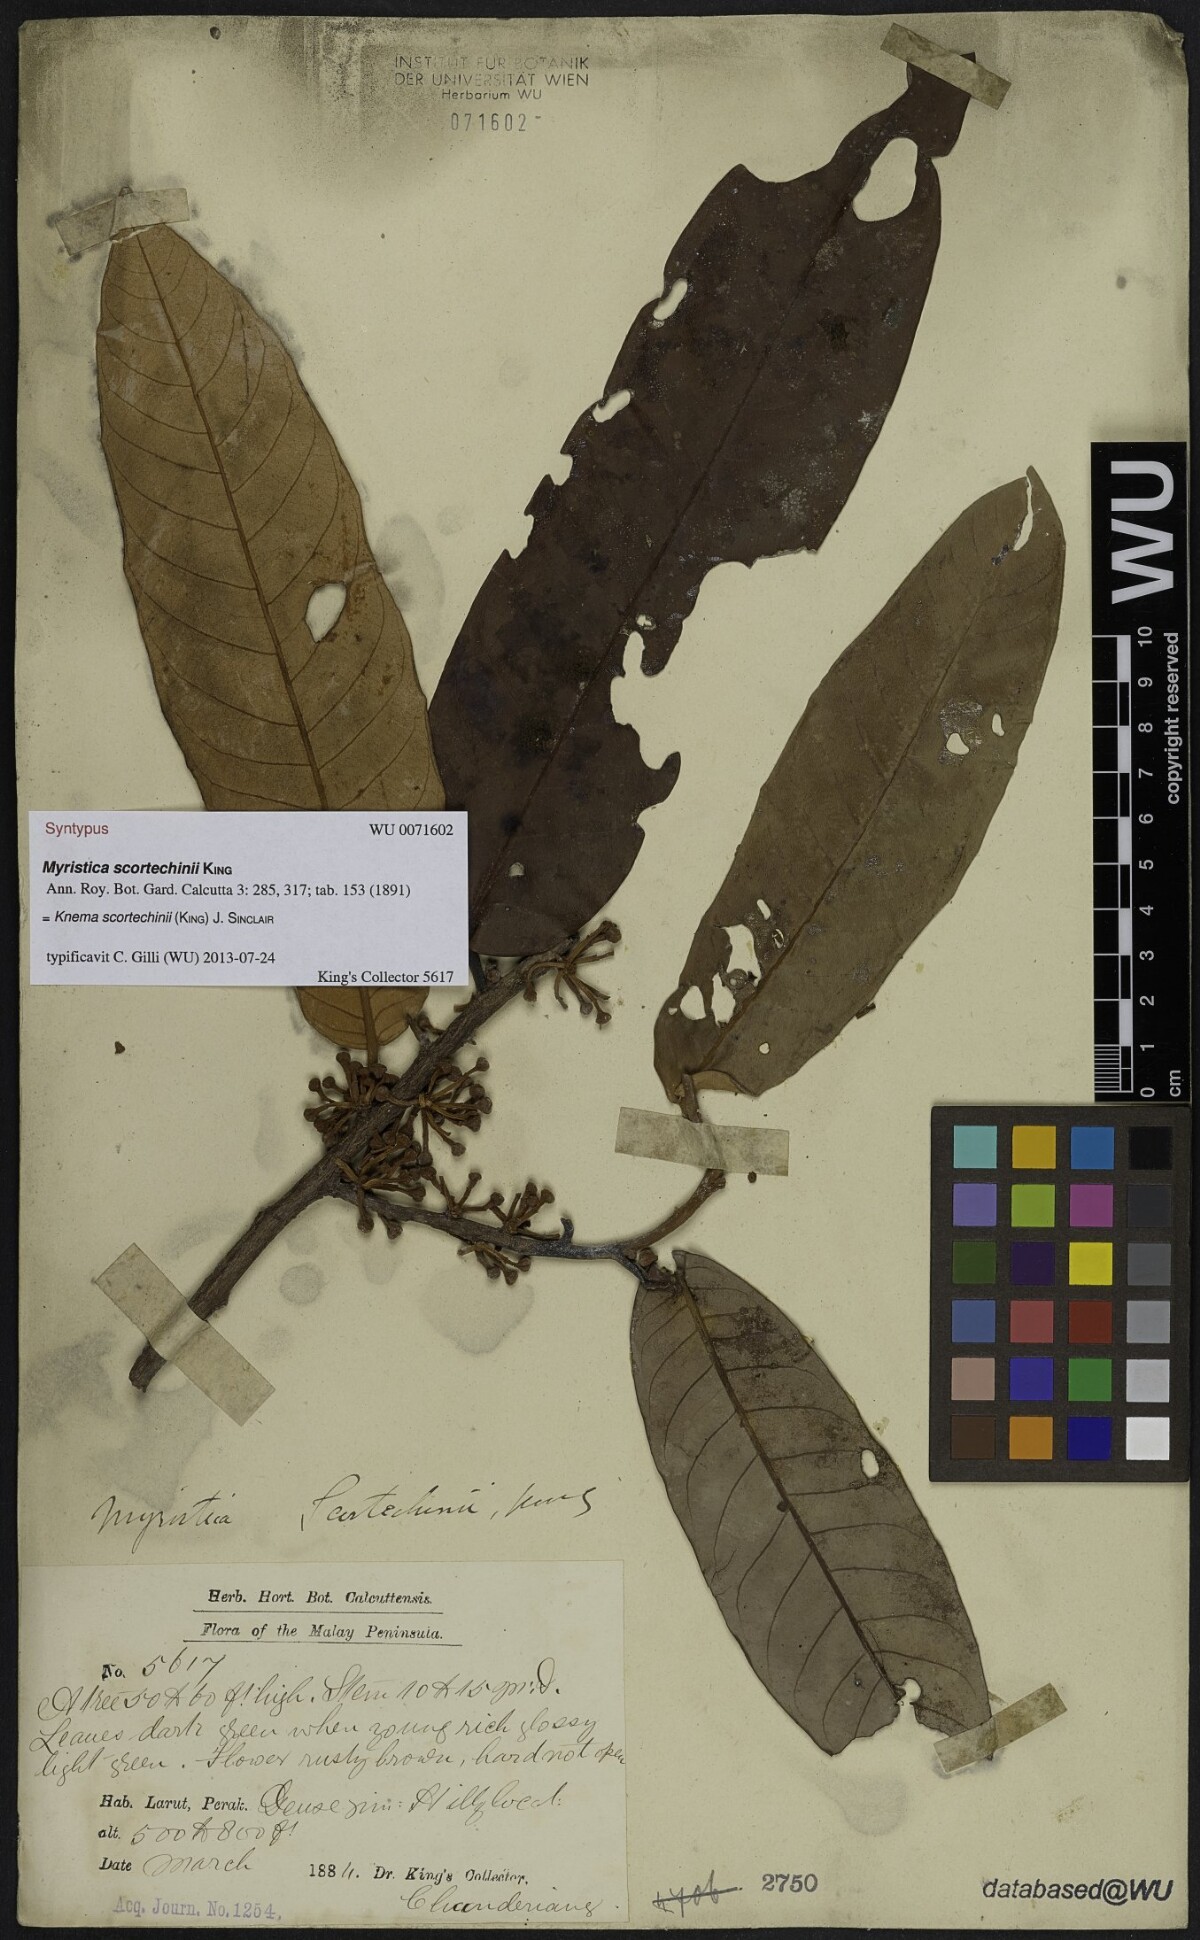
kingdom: Plantae
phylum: Tracheophyta
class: Magnoliopsida
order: Magnoliales
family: Myristicaceae
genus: Knema
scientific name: Knema scortechinii
